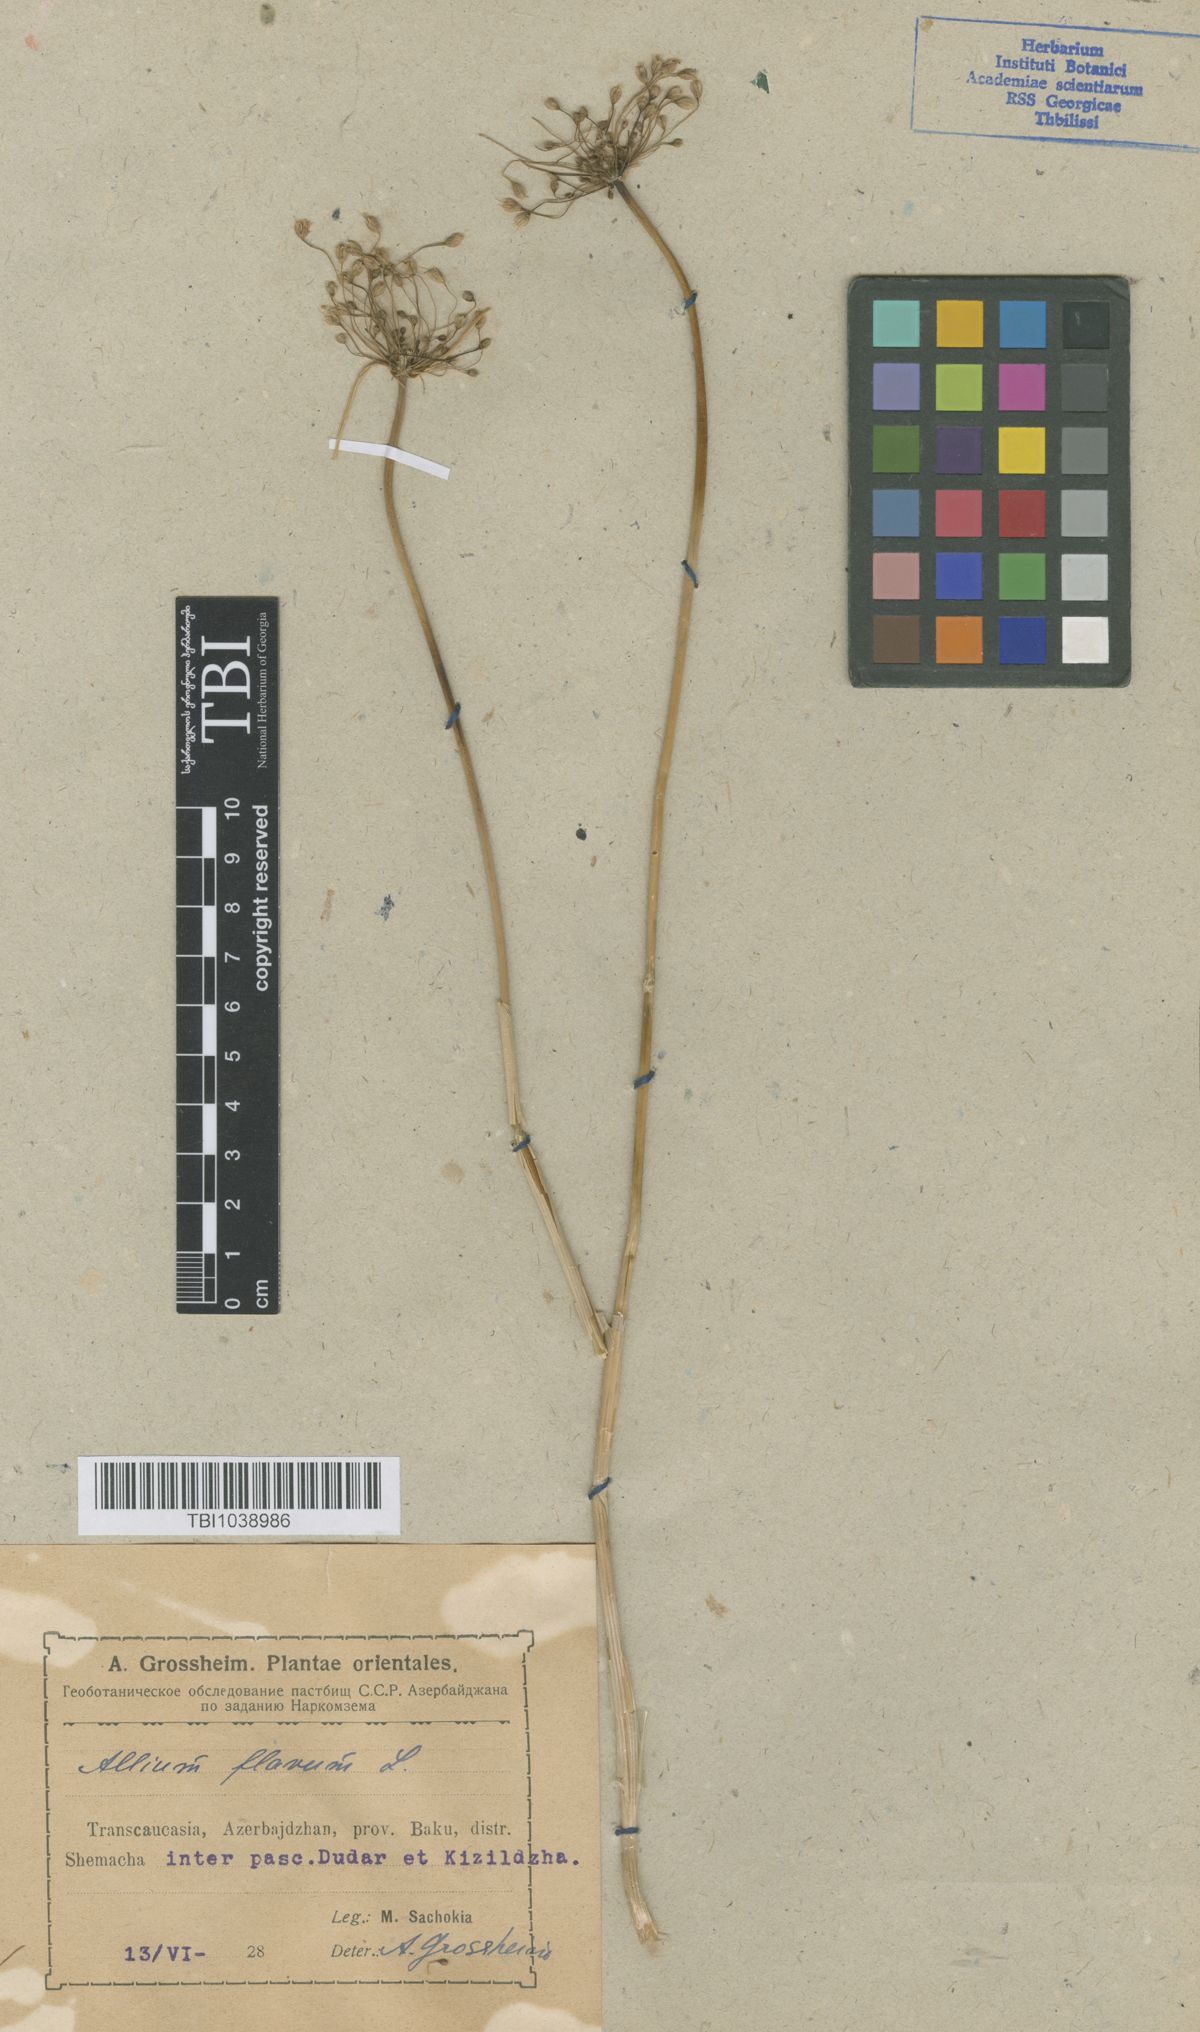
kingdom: Plantae
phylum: Tracheophyta
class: Liliopsida
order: Asparagales
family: Amaryllidaceae
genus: Allium
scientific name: Allium pseudoflavum
